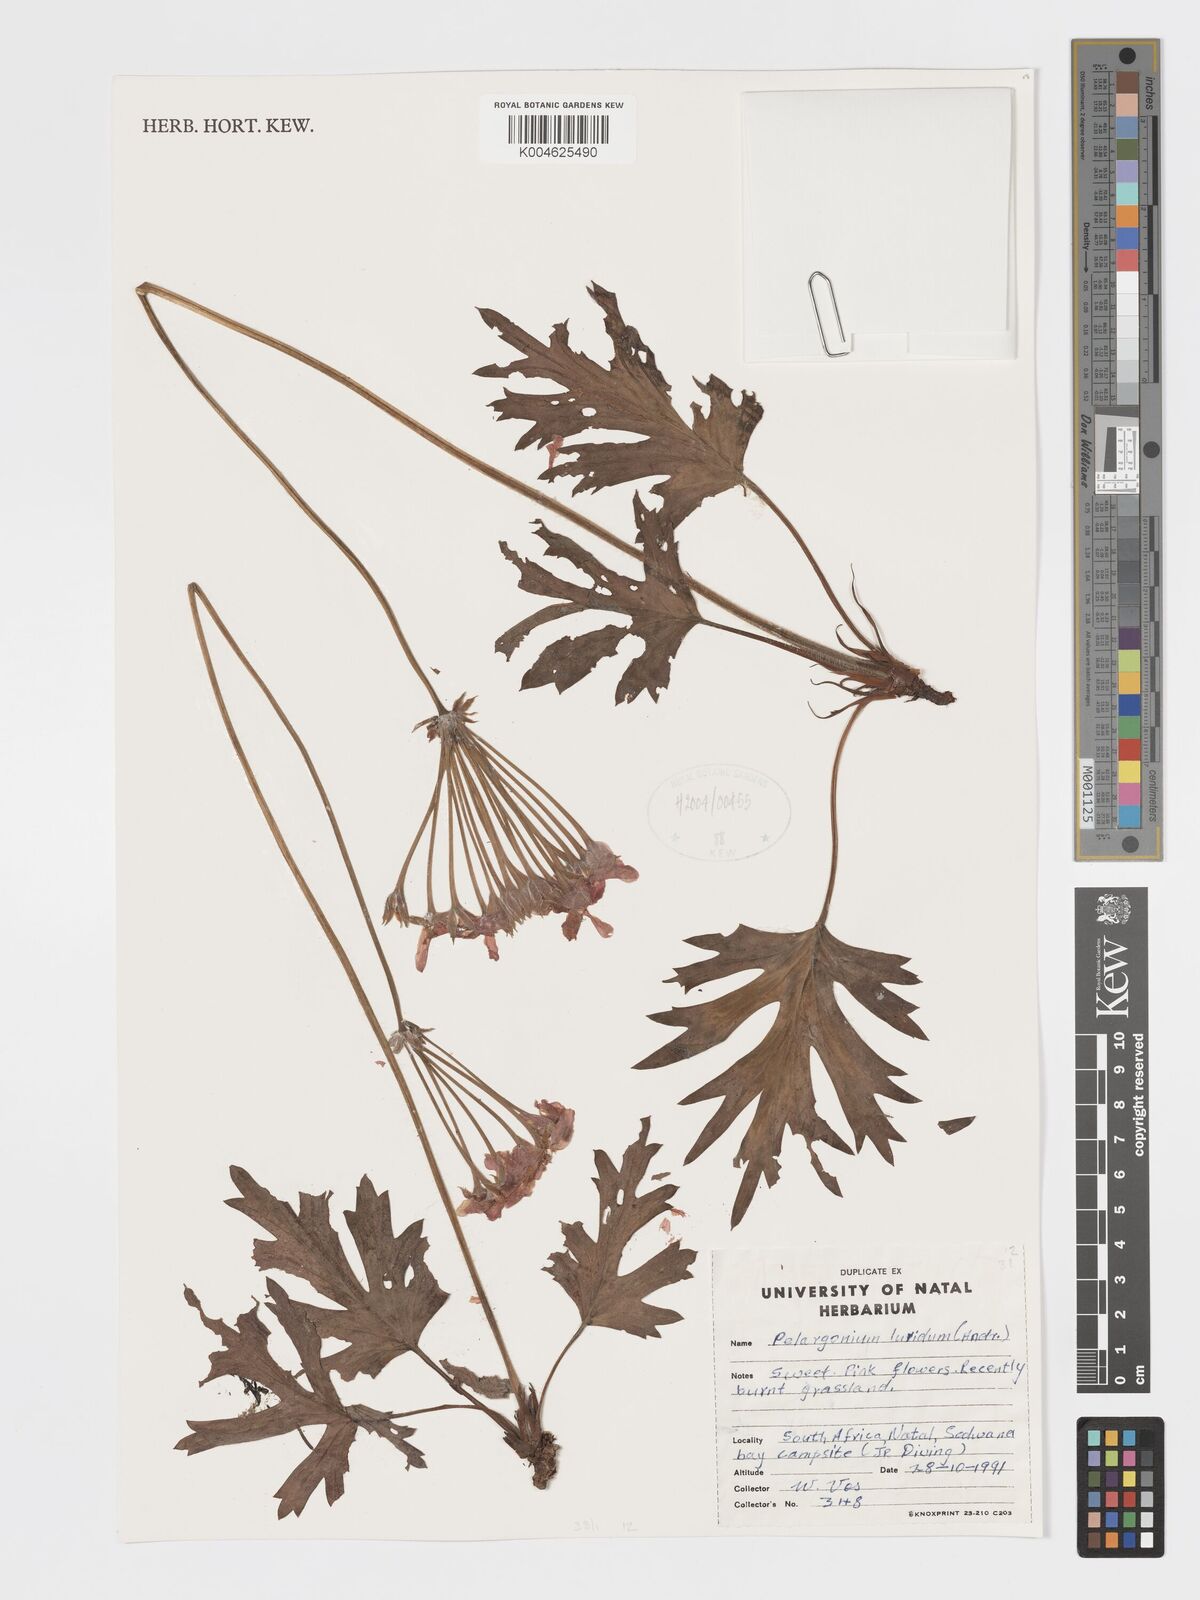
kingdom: Plantae
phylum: Tracheophyta
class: Magnoliopsida
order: Geraniales
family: Geraniaceae
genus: Pelargonium
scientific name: Pelargonium luridum
